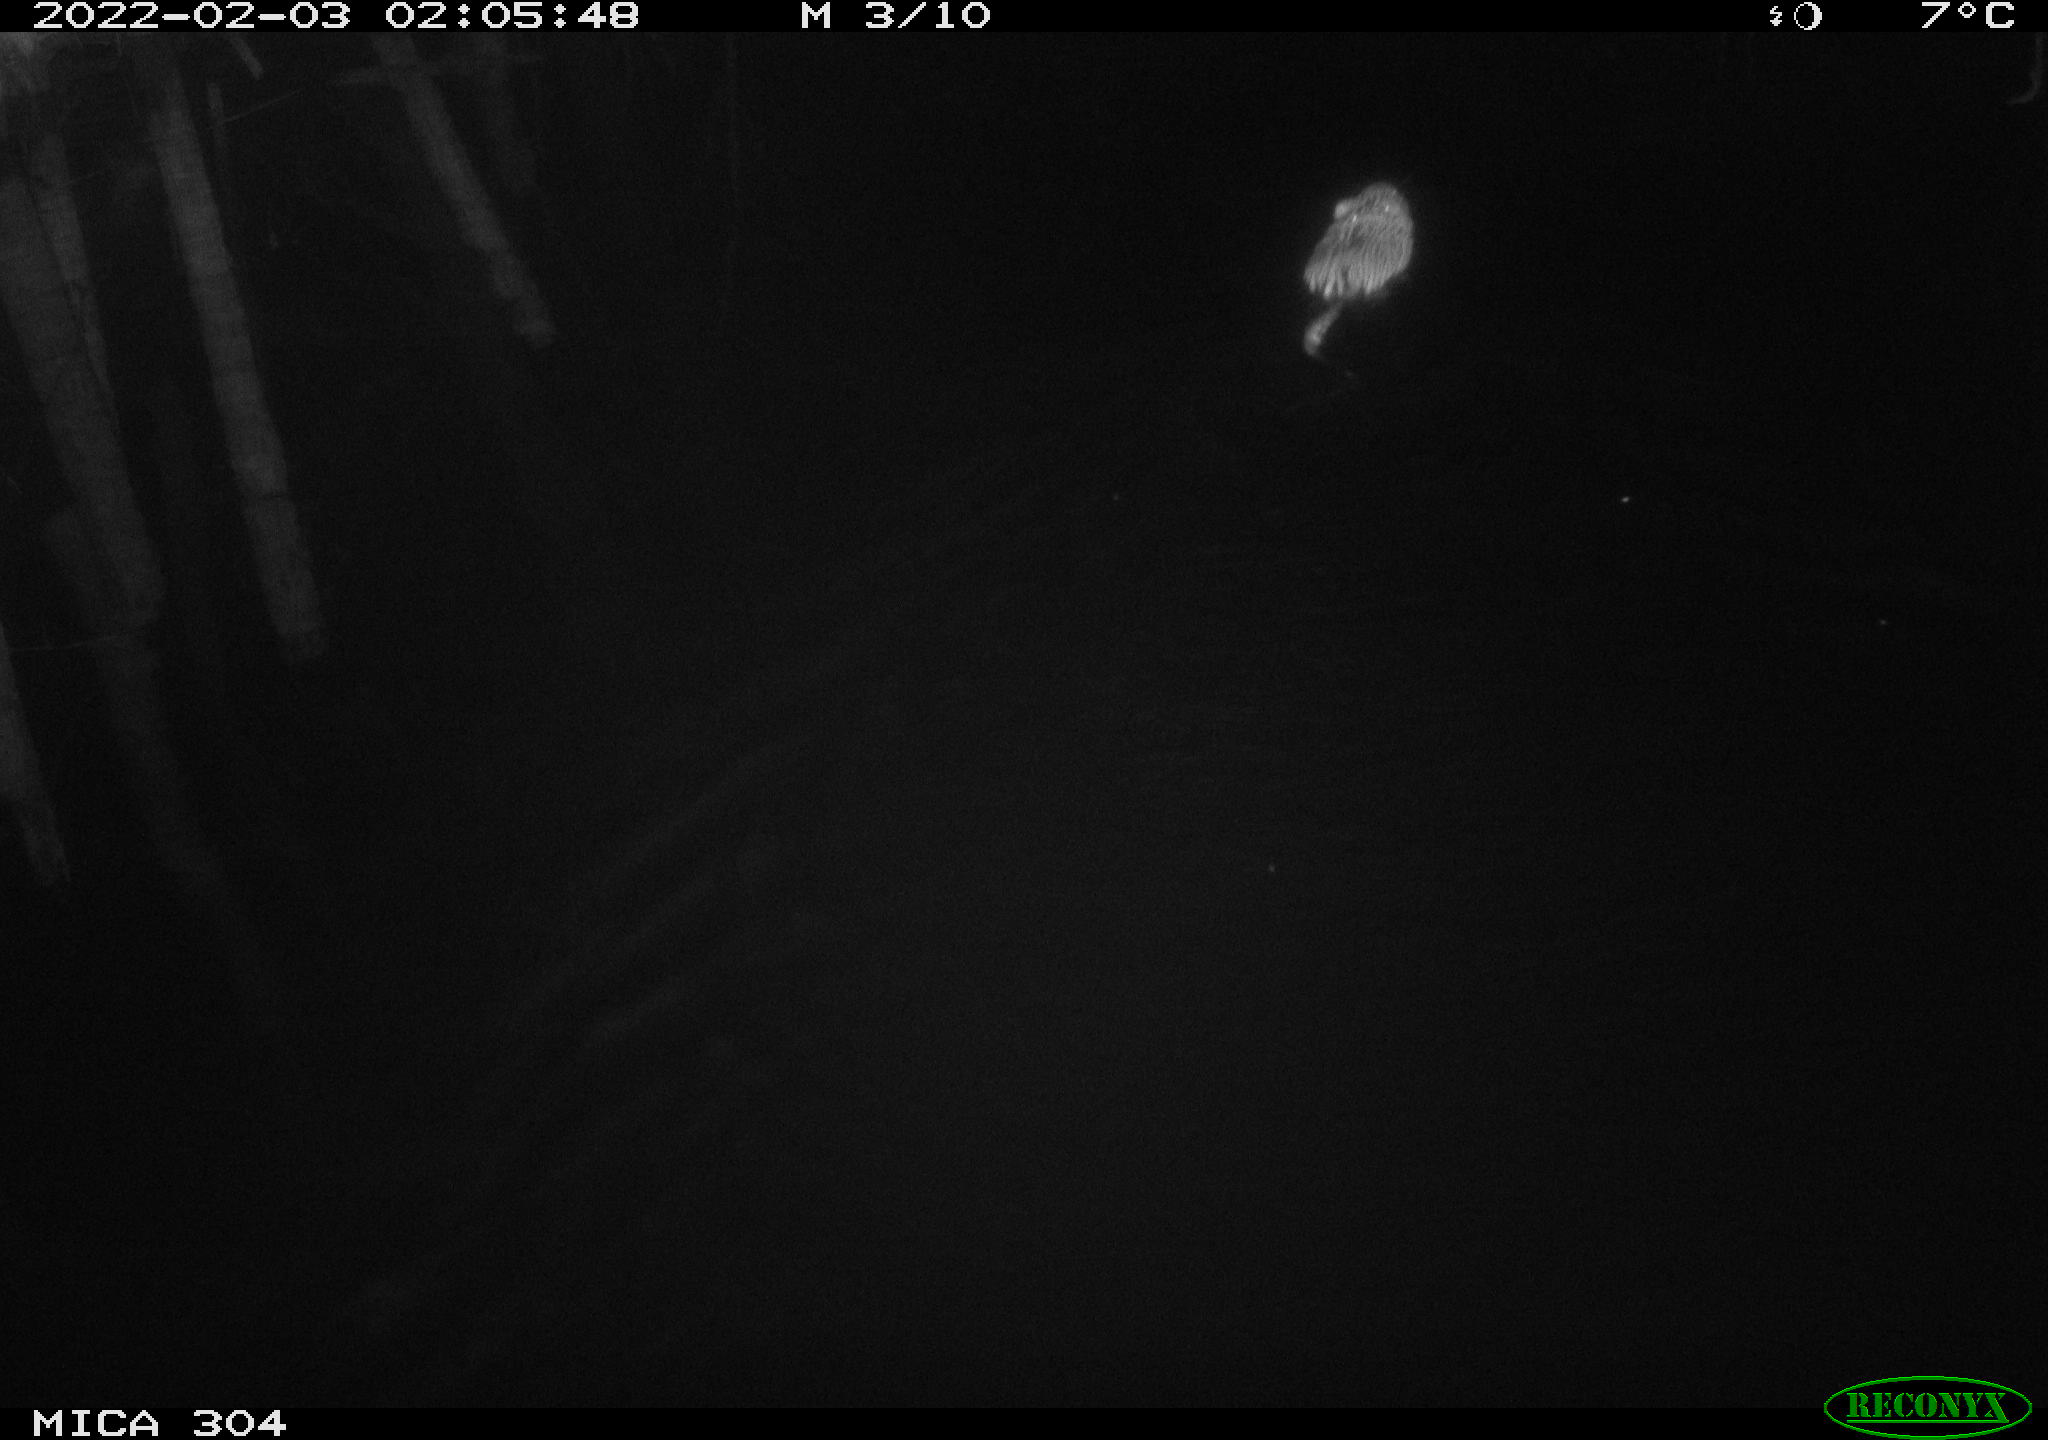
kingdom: Animalia
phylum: Chordata
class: Mammalia
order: Rodentia
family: Cricetidae
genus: Ondatra
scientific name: Ondatra zibethicus
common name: Muskrat
